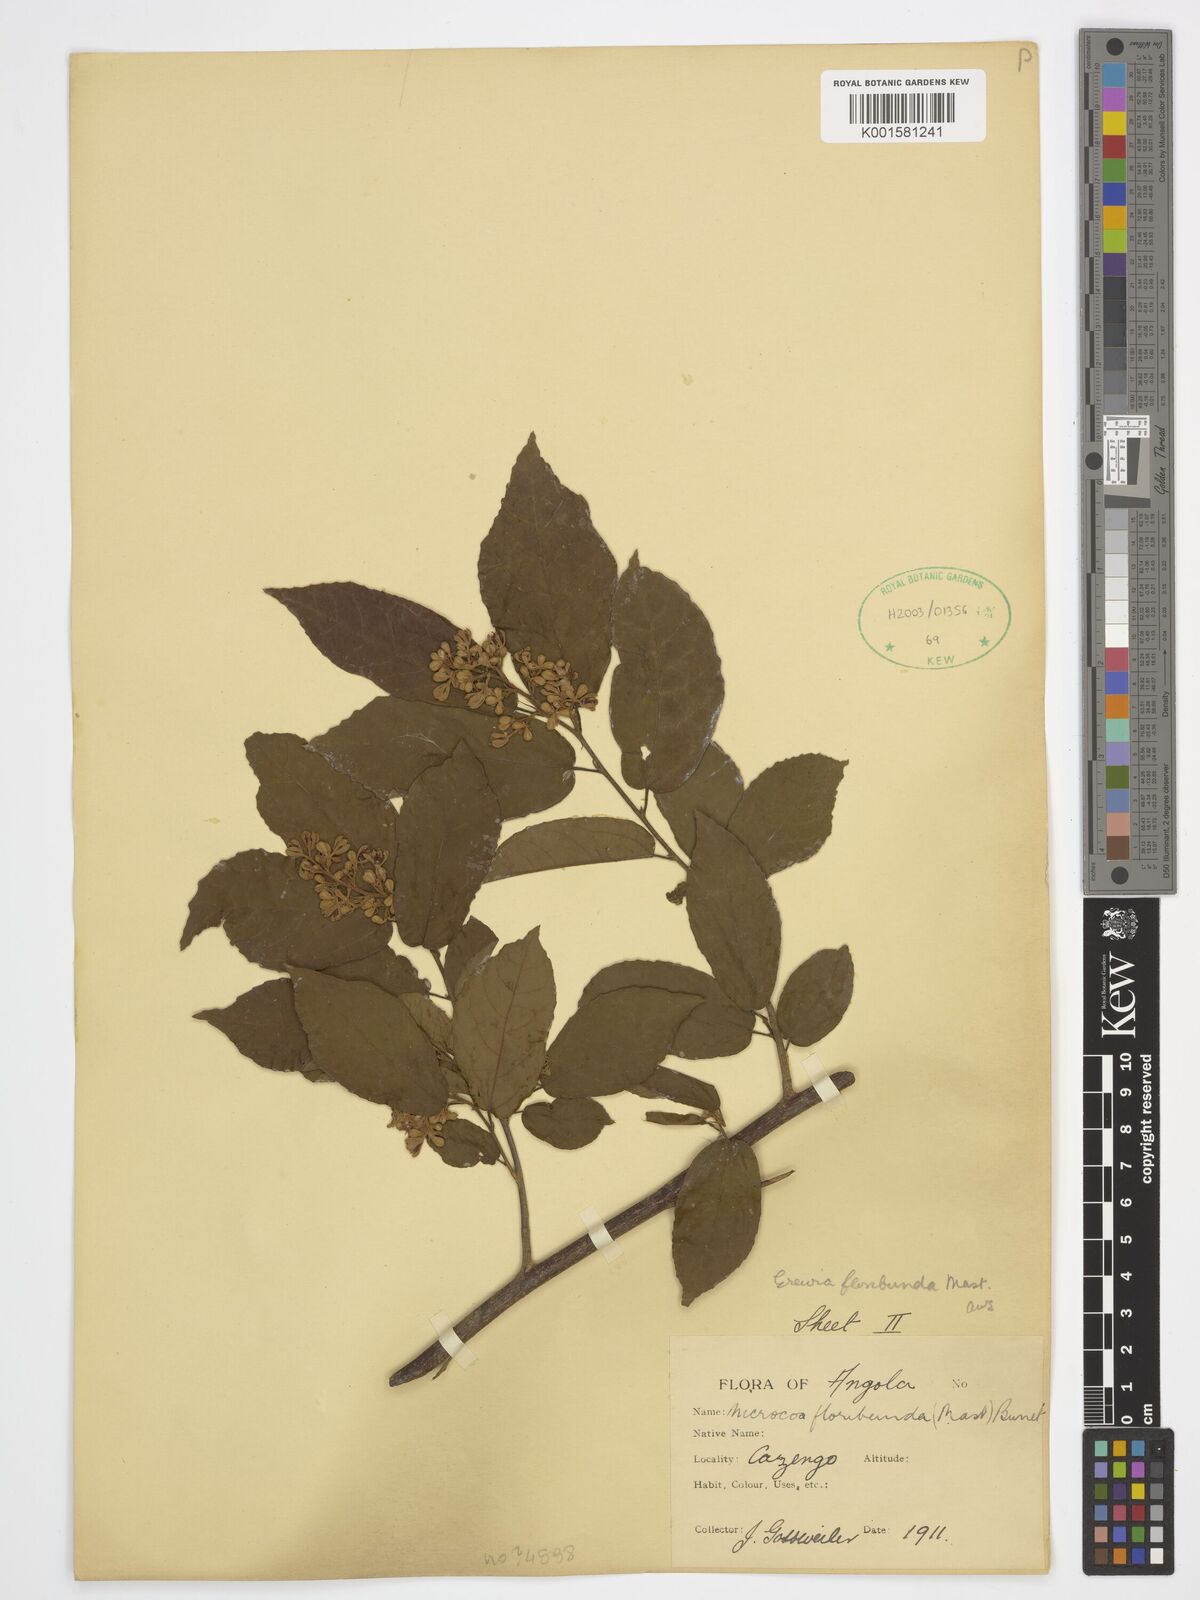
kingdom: Plantae
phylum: Tracheophyta
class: Magnoliopsida
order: Malvales
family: Malvaceae
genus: Microcos
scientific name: Microcos floribunda
